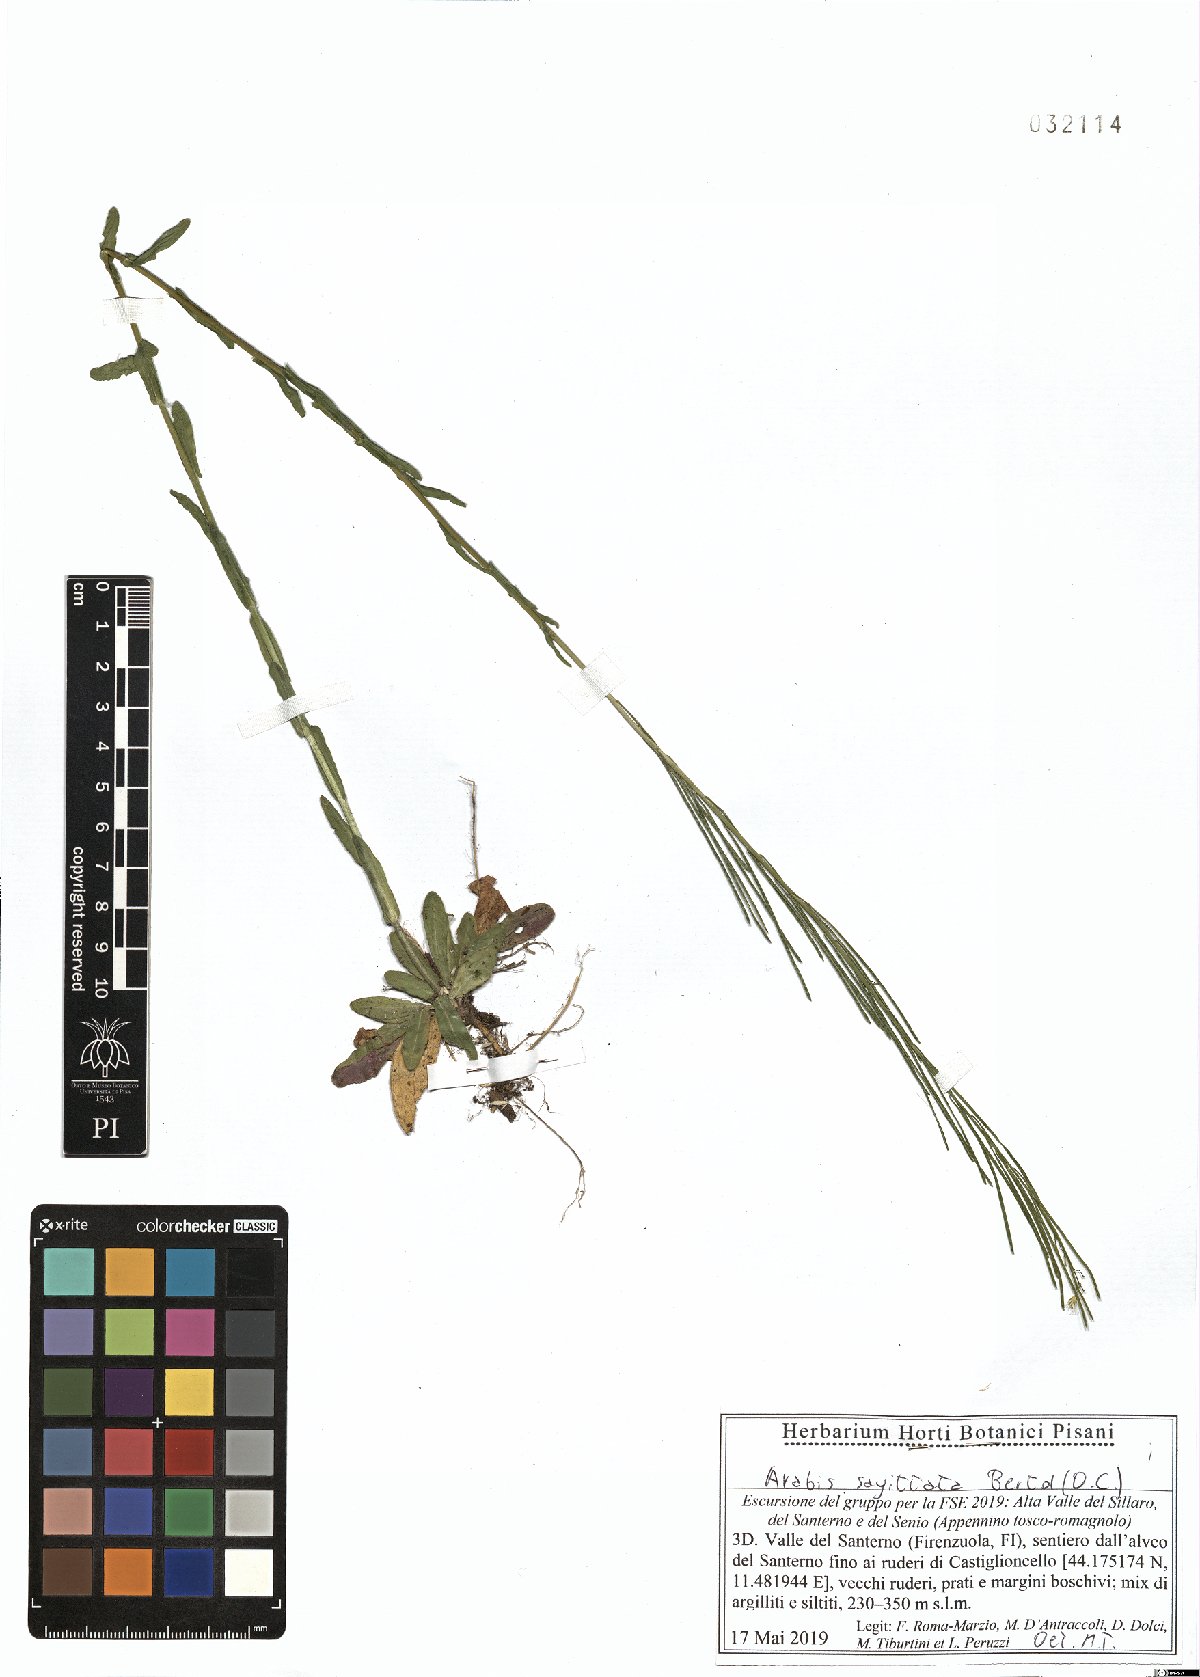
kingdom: Plantae
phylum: Tracheophyta
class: Magnoliopsida
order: Brassicales
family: Brassicaceae
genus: Arabis
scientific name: Arabis sagittata
